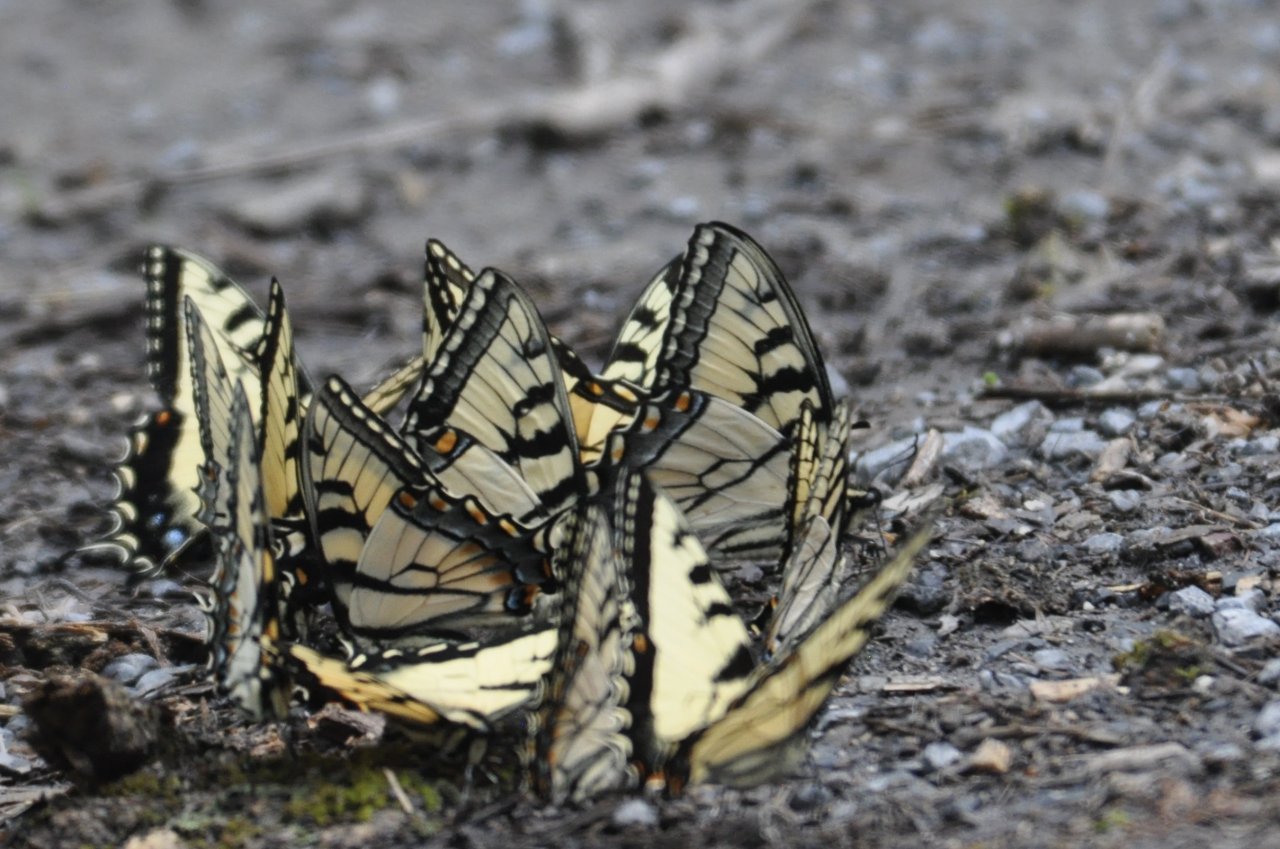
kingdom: Animalia
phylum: Arthropoda
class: Insecta
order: Lepidoptera
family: Papilionidae
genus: Papilio
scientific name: Papilio
